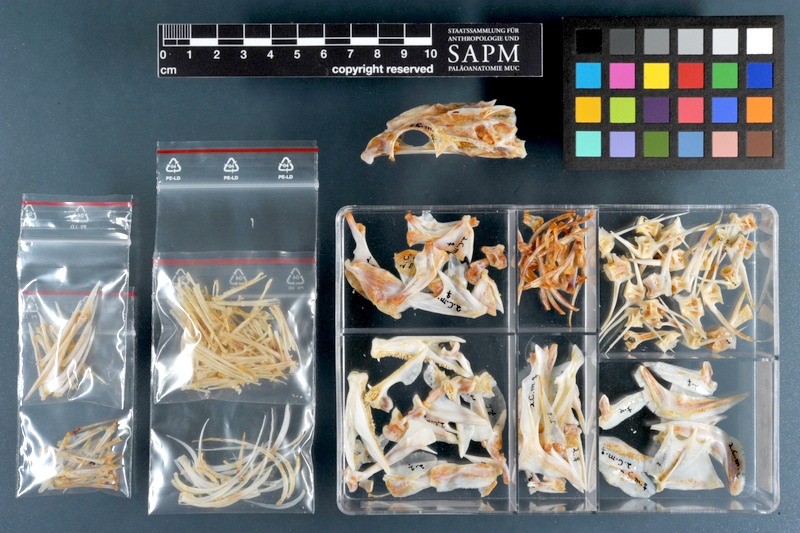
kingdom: Animalia
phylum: Chordata
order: Perciformes
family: Serranidae
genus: Cephalopholis
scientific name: Cephalopholis miniata
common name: Coral hind
